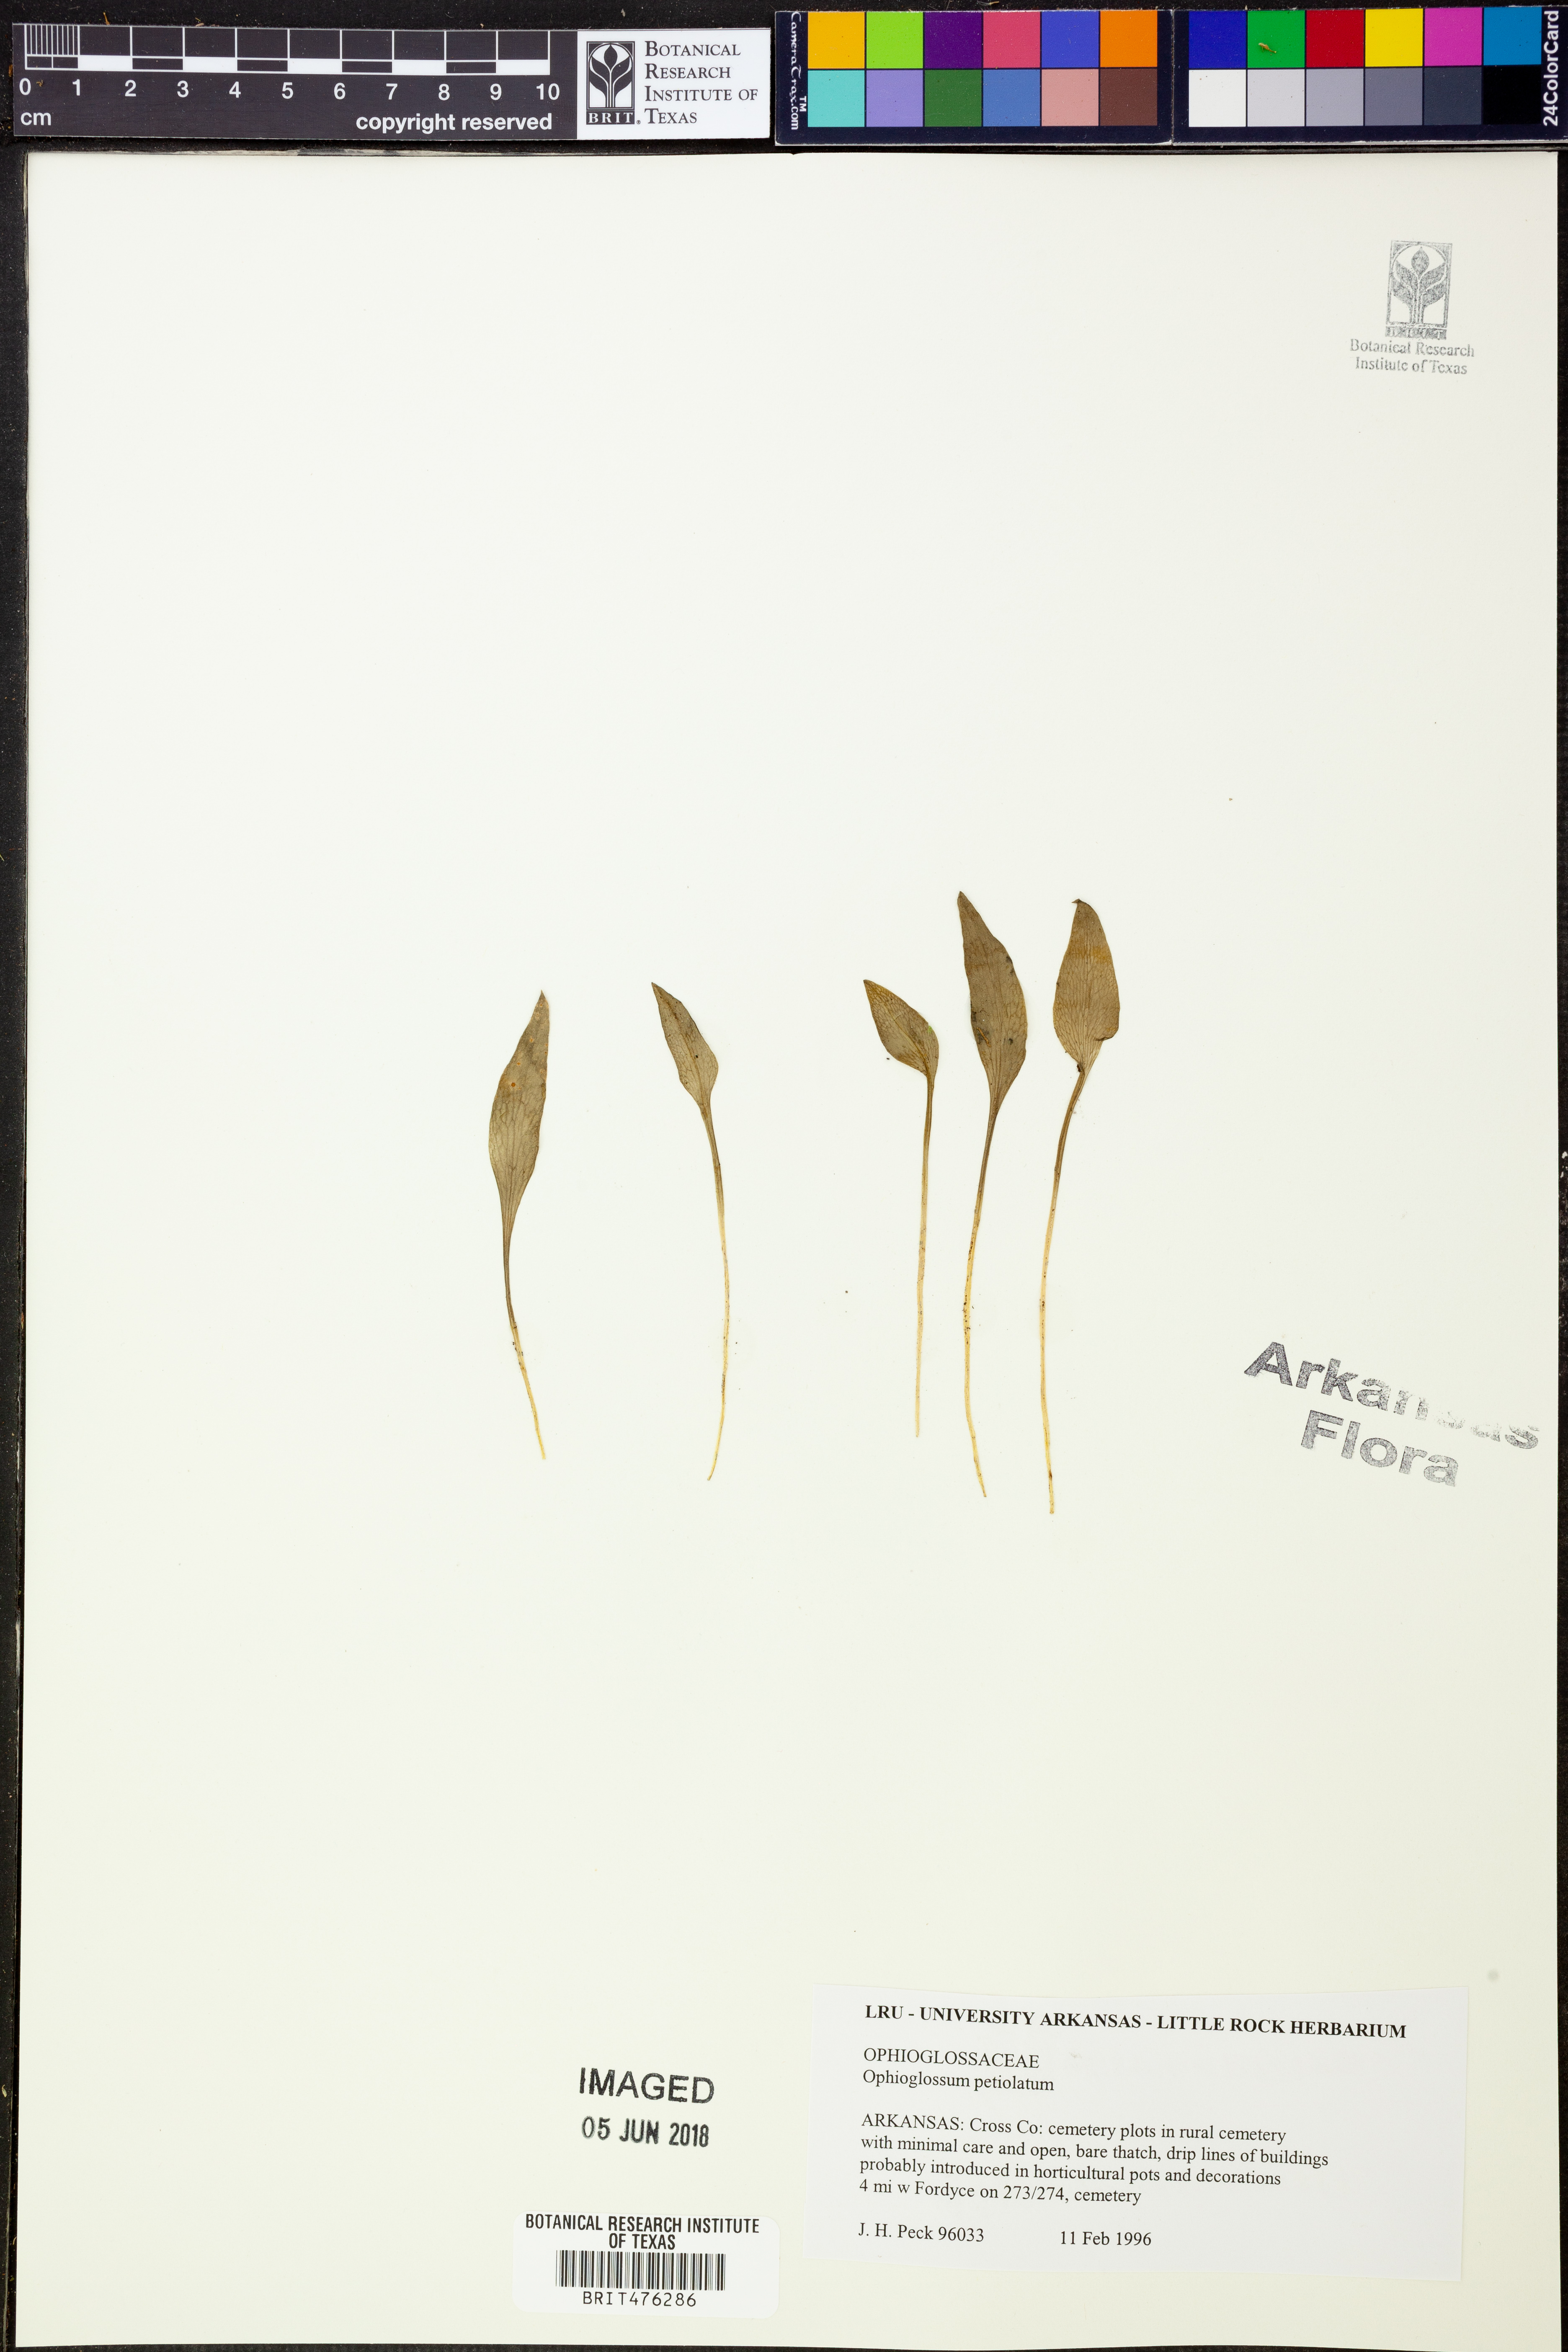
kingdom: Plantae
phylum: Tracheophyta
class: Polypodiopsida
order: Ophioglossales
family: Ophioglossaceae
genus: Ophioglossum
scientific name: Ophioglossum petiolatum
